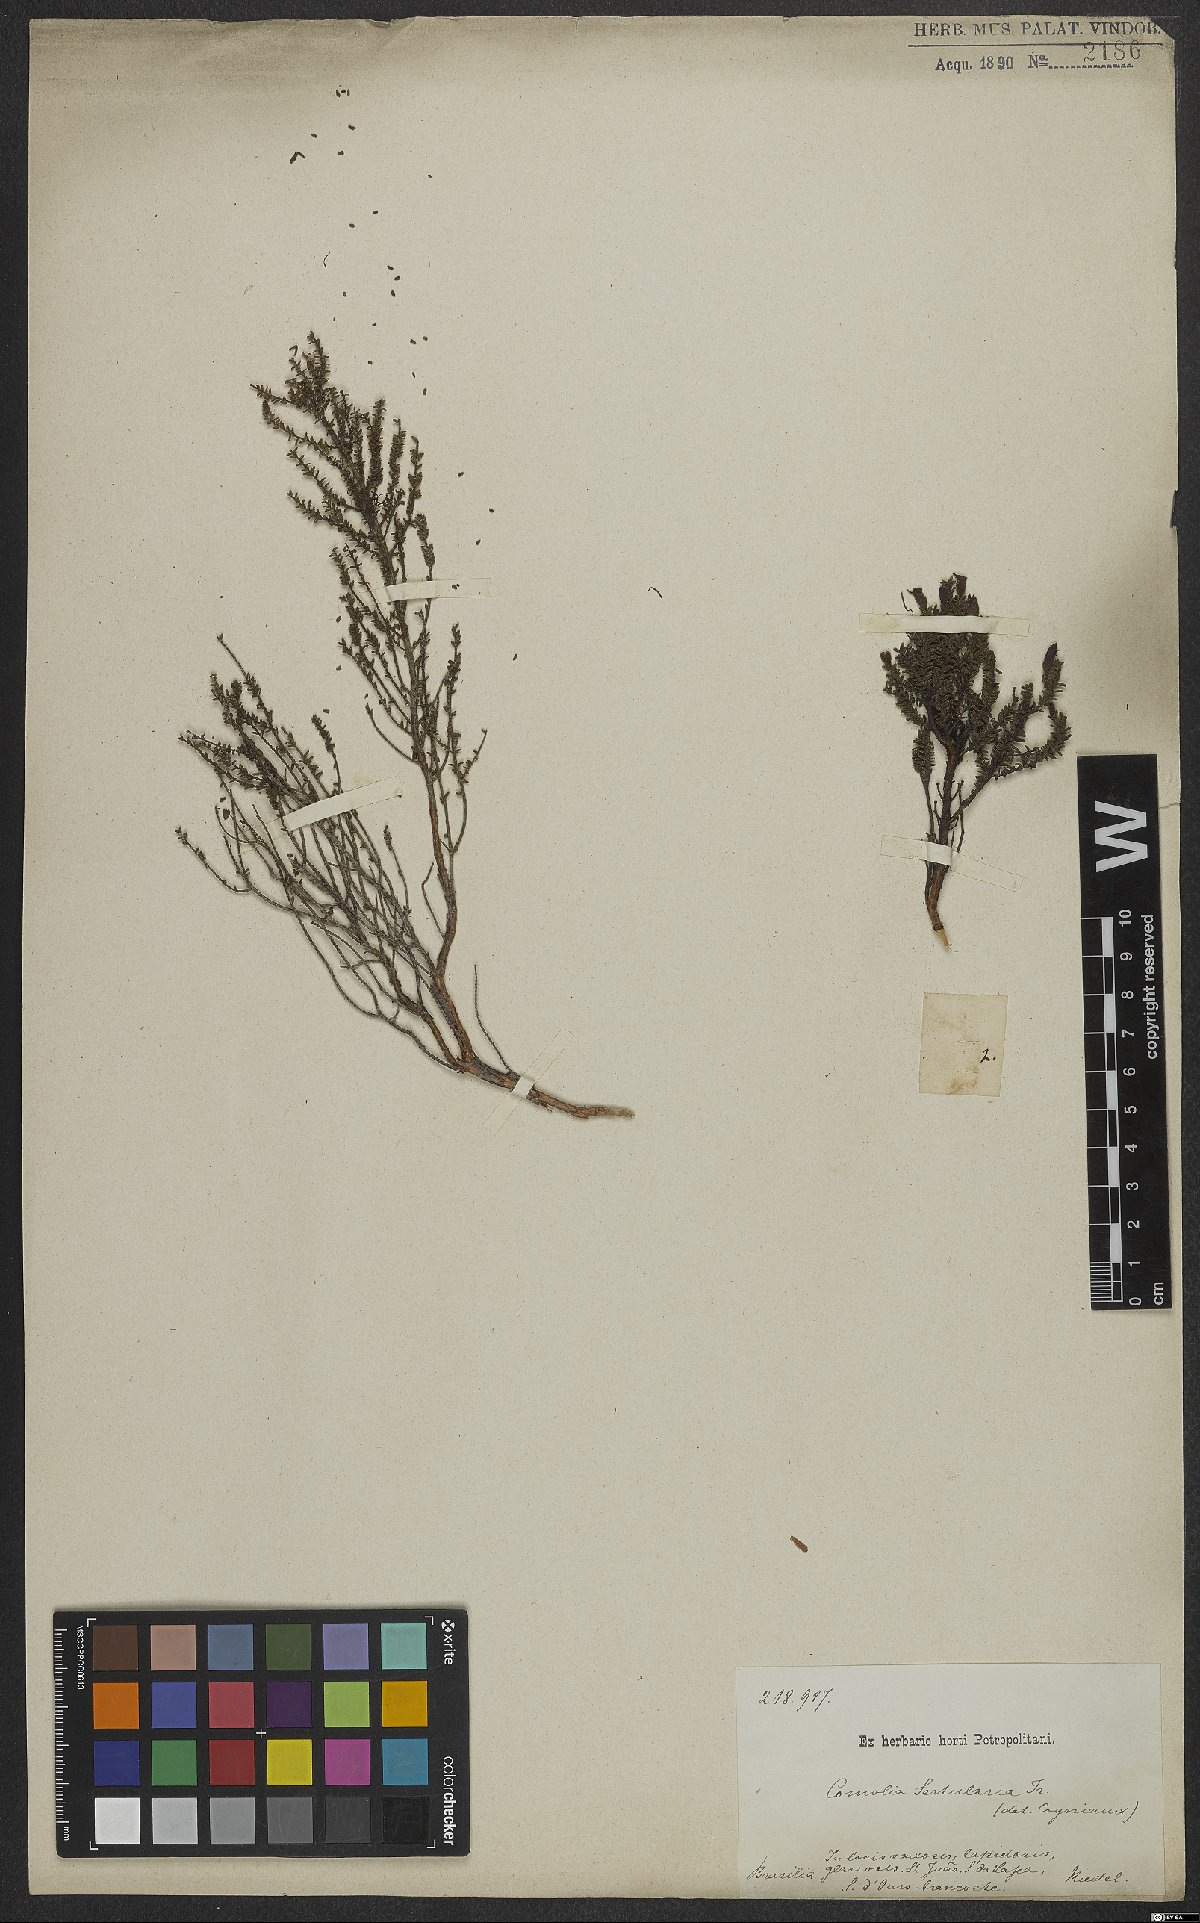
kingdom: Plantae
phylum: Tracheophyta
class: Magnoliopsida
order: Myrtales
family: Melastomataceae
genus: Fritzschia
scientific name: Fritzschia sertularia
